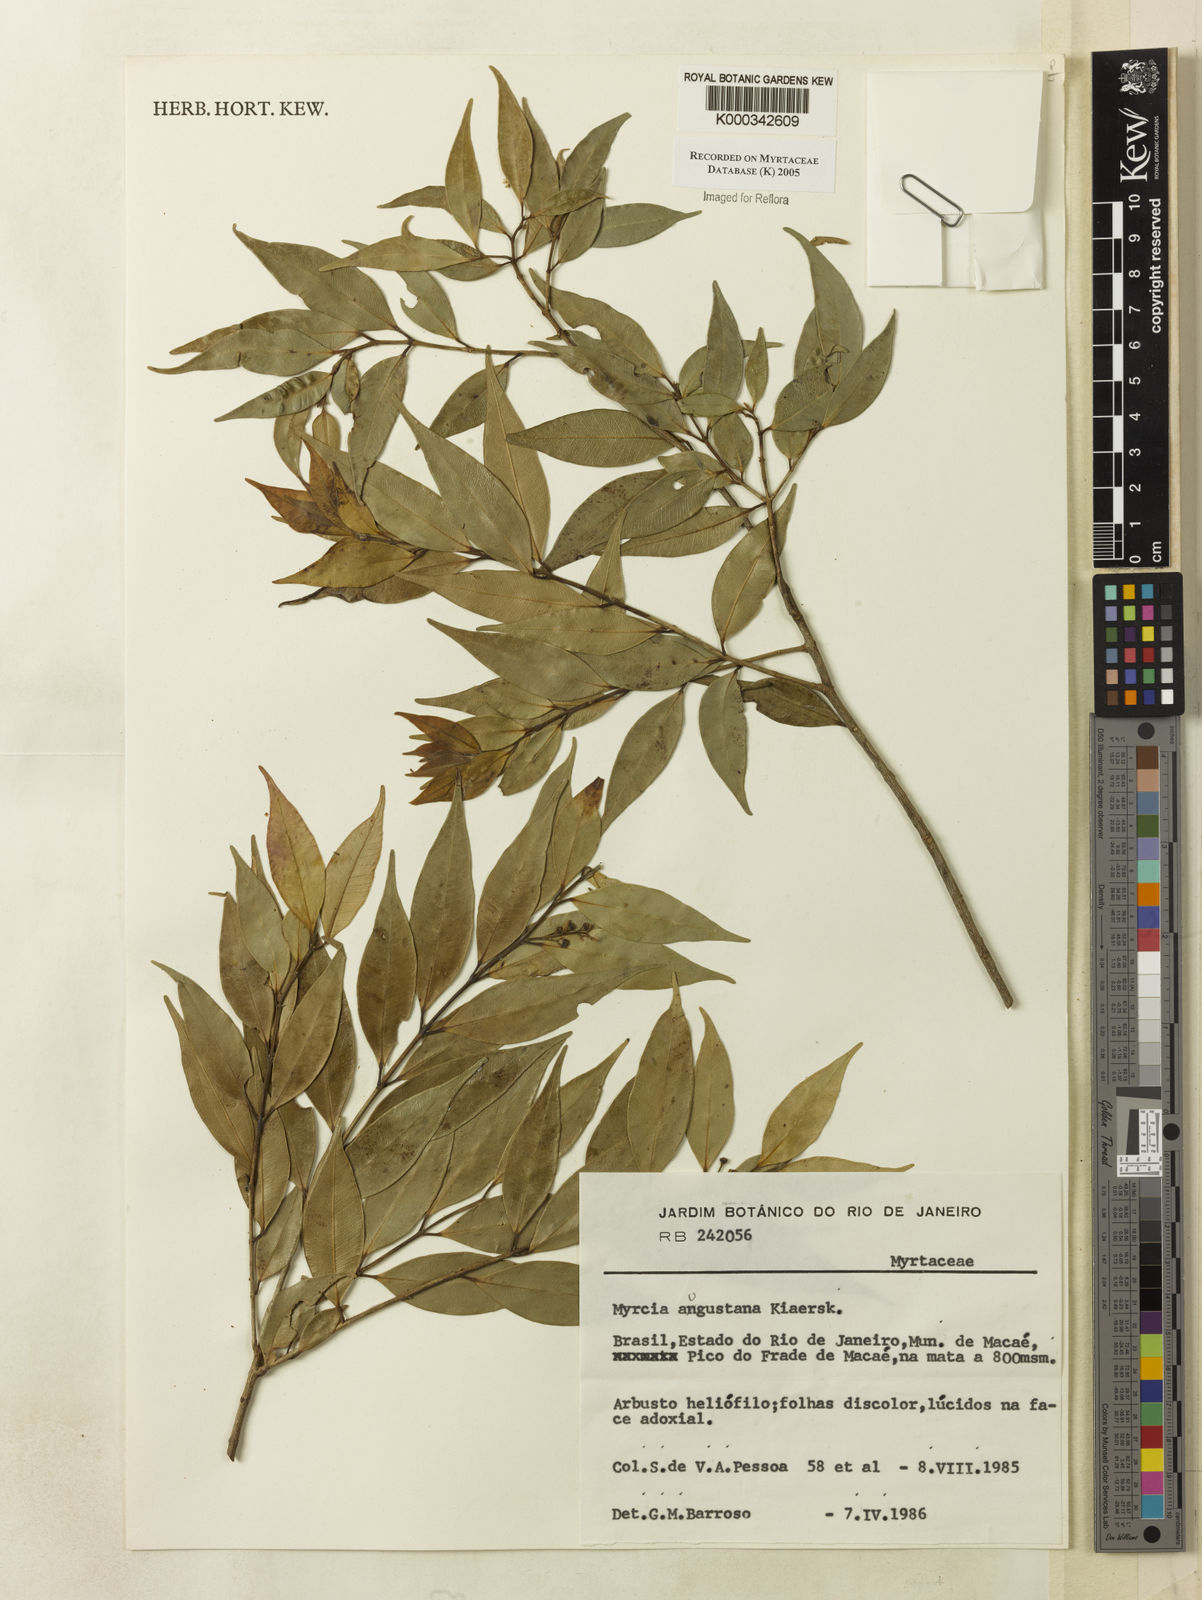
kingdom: Plantae
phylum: Tracheophyta
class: Magnoliopsida
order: Myrtales
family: Myrtaceae
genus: Myrcia
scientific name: Myrcia splendens
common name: Surinam cherry
